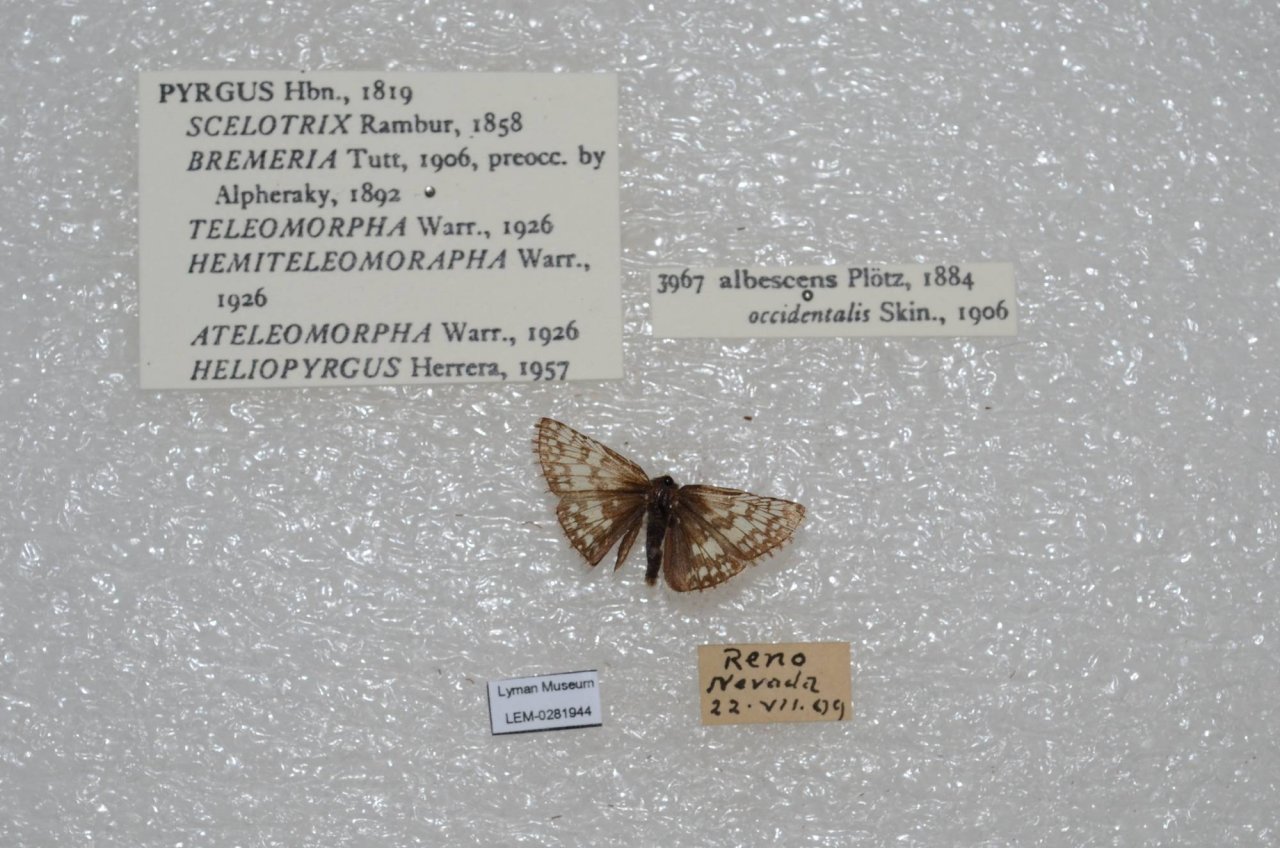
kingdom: Animalia
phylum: Arthropoda
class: Insecta
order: Lepidoptera
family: Hesperiidae
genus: Pyrgus
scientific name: Pyrgus communis
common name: White Checkered-Skipper
